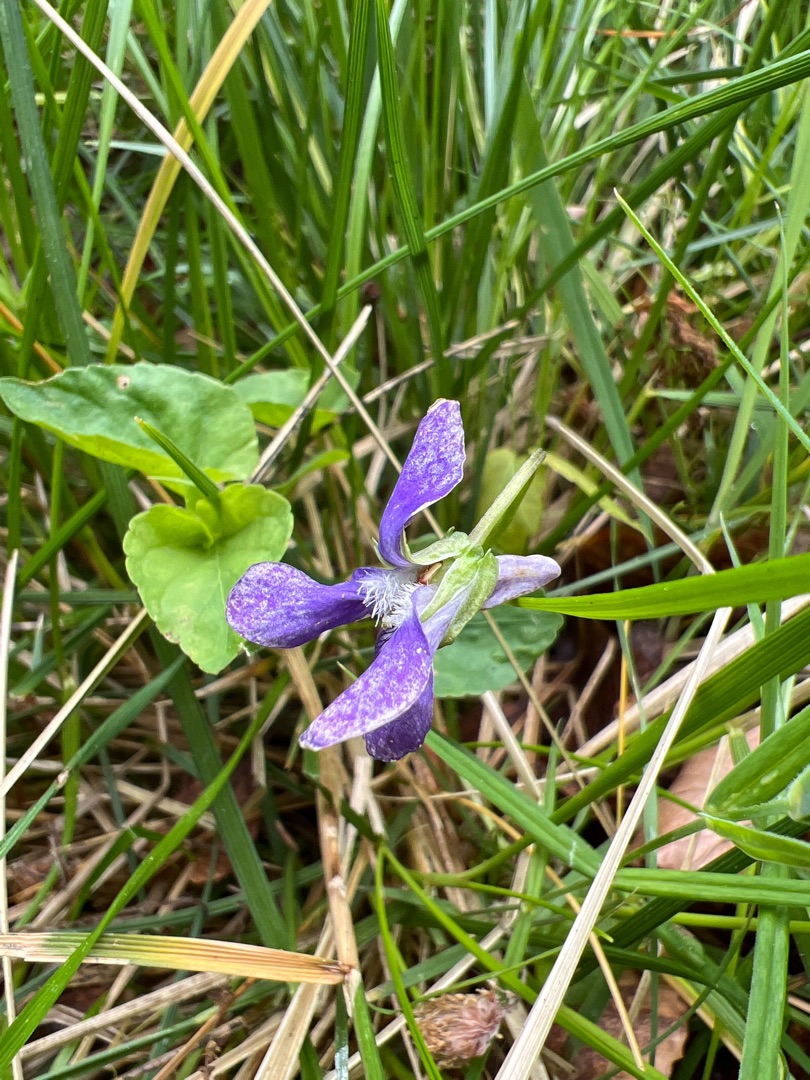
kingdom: Plantae
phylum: Tracheophyta
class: Magnoliopsida
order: Malpighiales
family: Violaceae
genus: Viola
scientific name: Viola reichenbachiana
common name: Skov-viol
